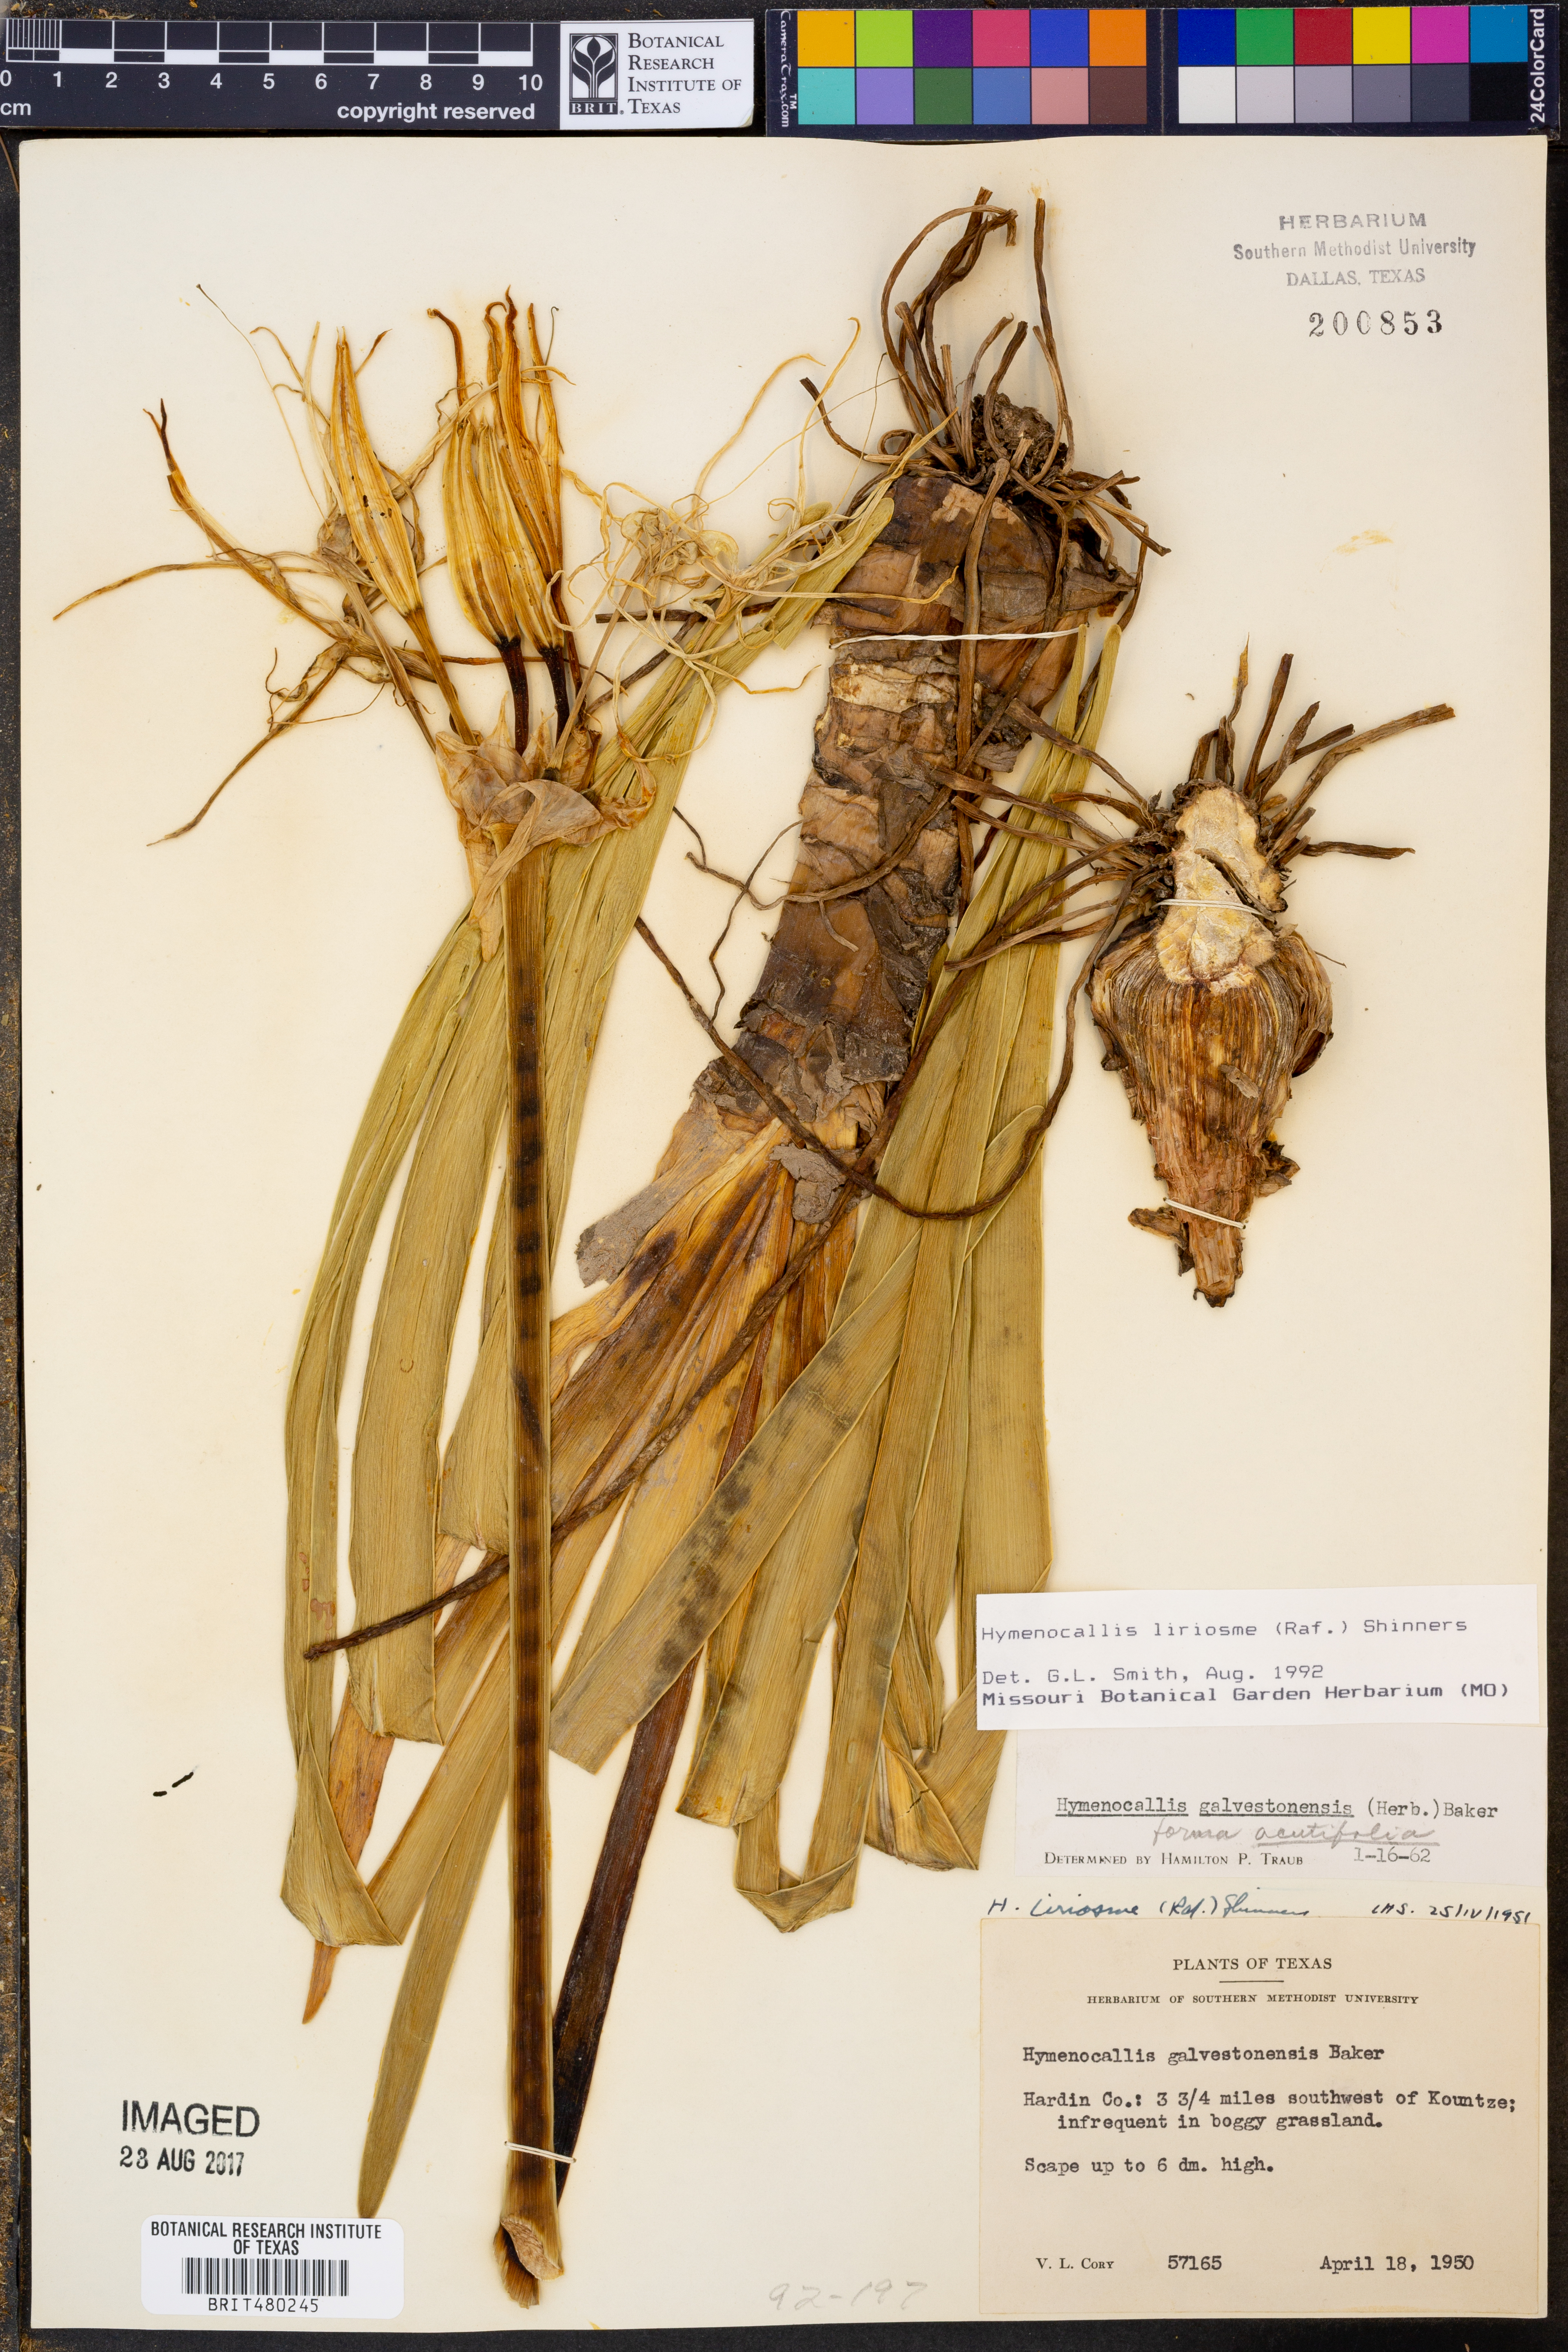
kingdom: Plantae
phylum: Tracheophyta
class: Liliopsida
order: Asparagales
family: Amaryllidaceae
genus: Hymenocallis
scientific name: Hymenocallis liriosme
